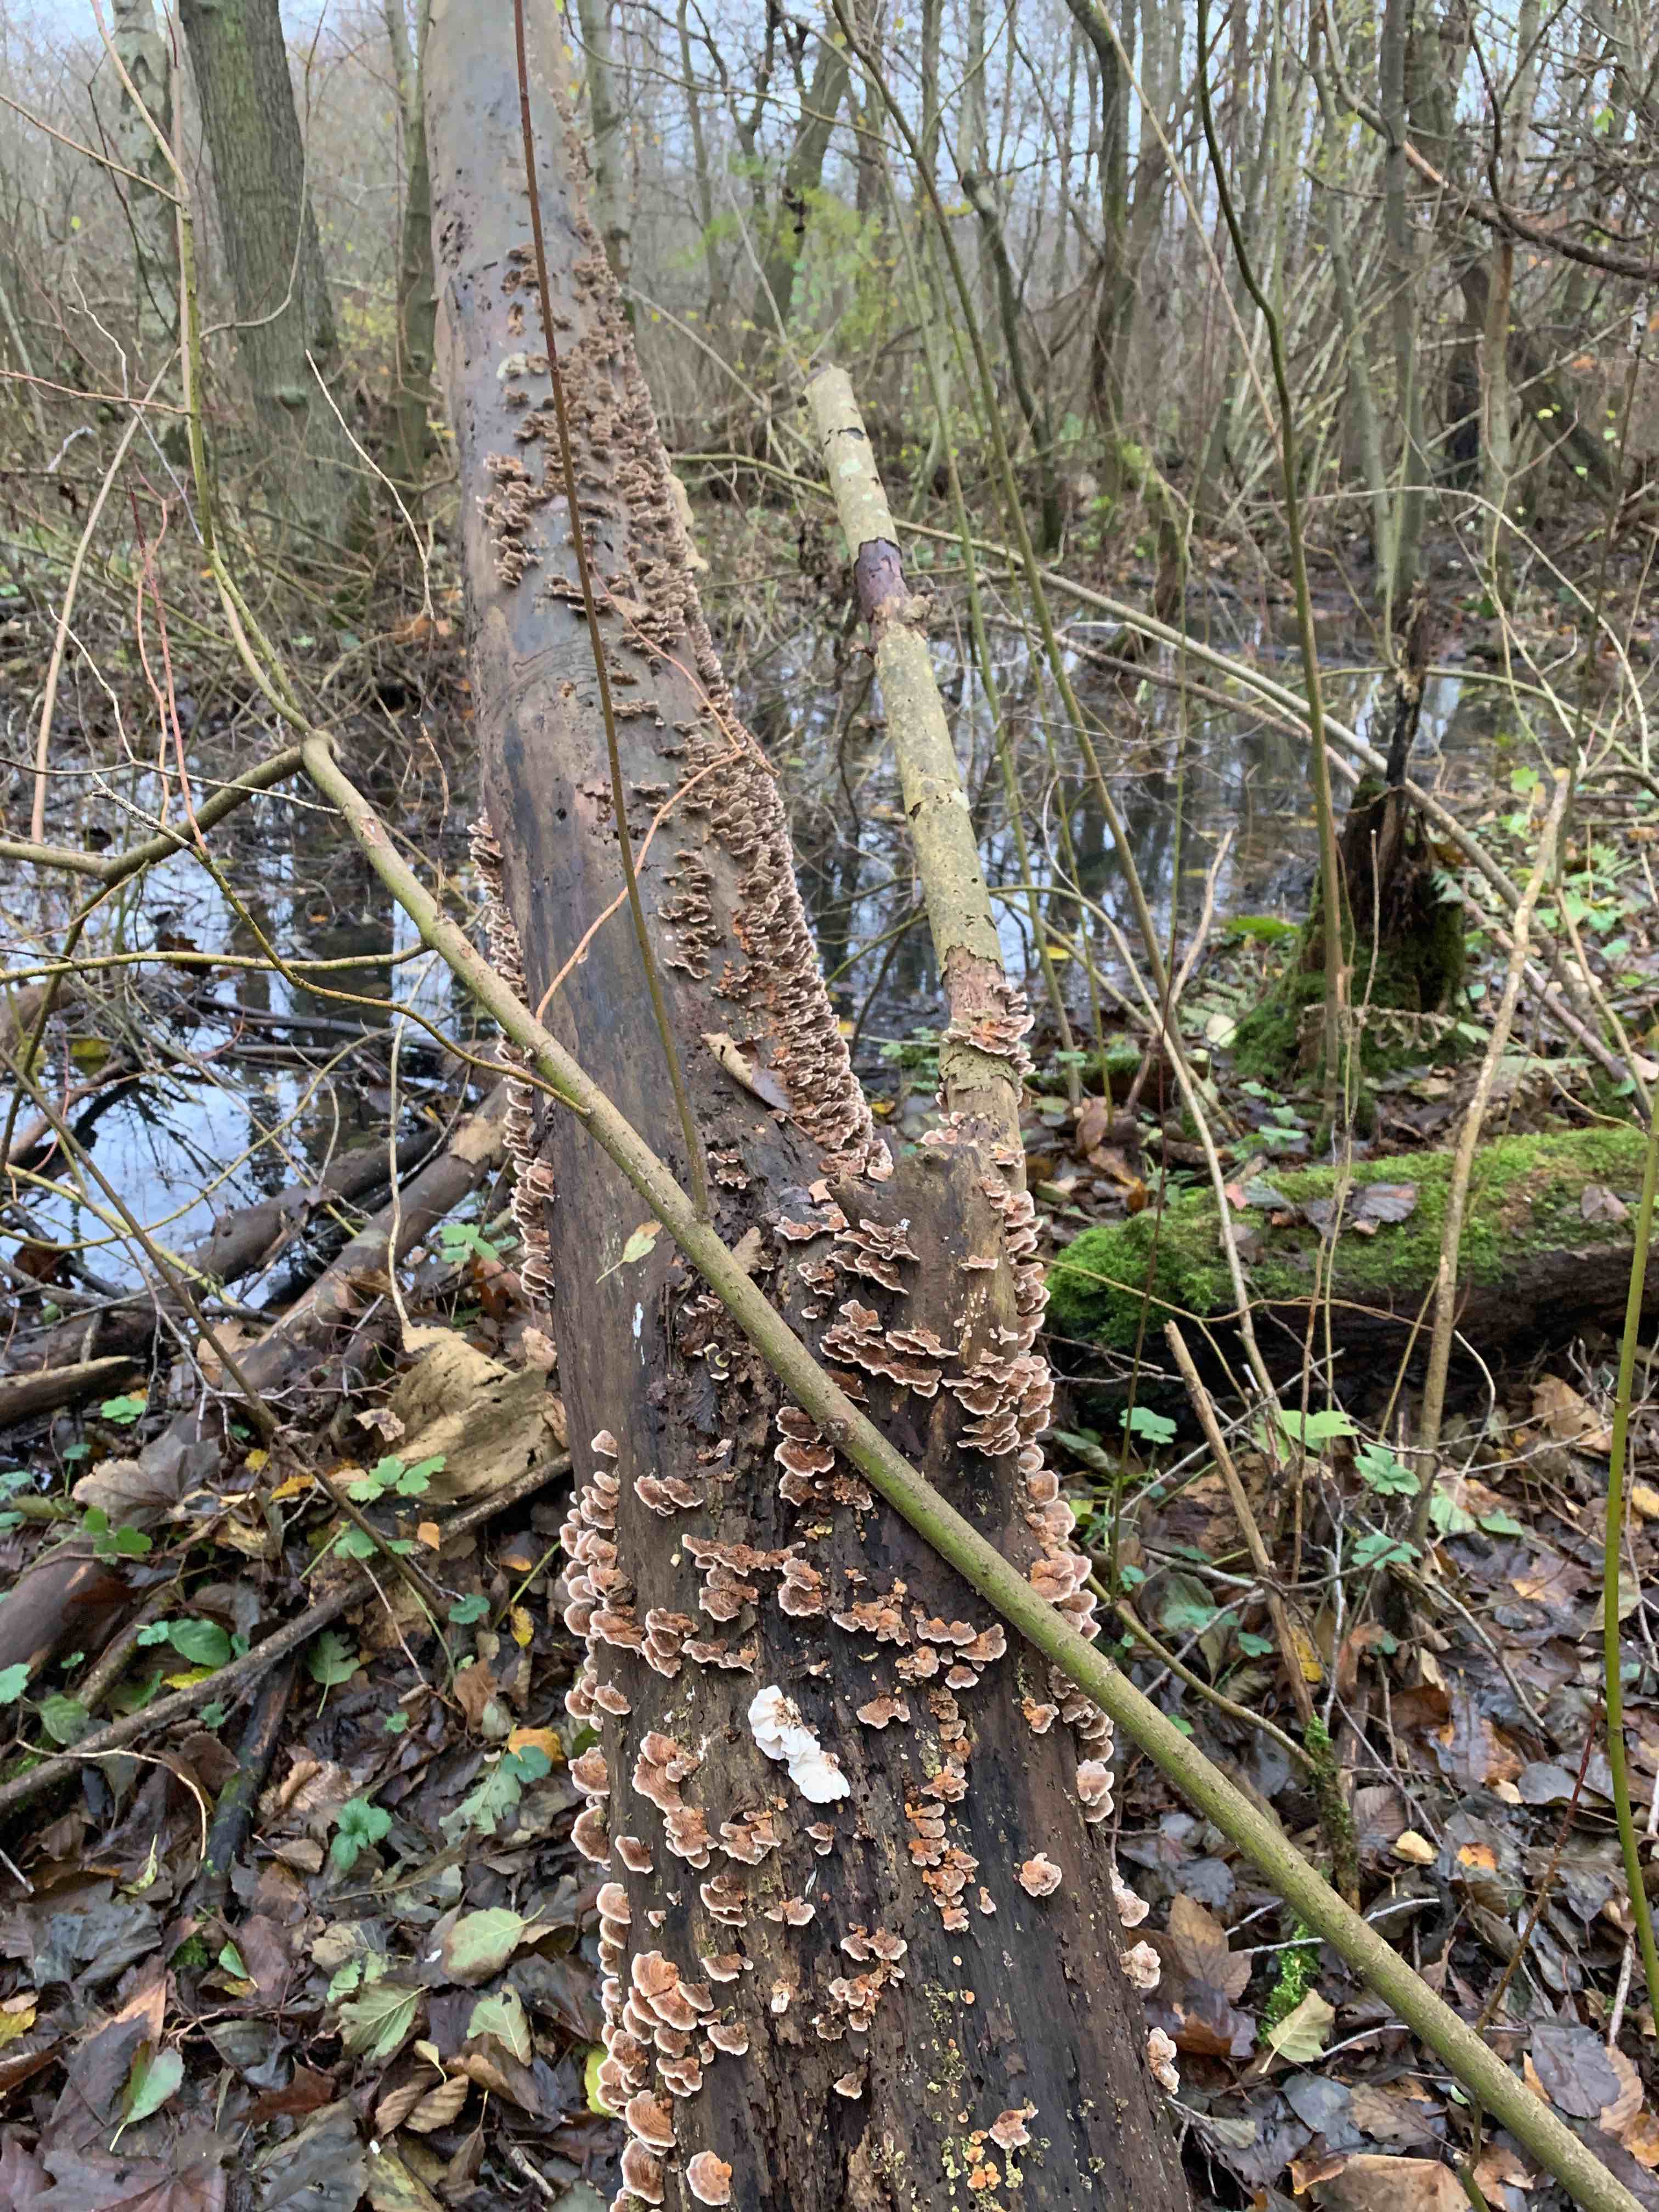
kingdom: Fungi
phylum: Basidiomycota
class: Agaricomycetes
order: Polyporales
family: Polyporaceae
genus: Trametes
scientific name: Trametes versicolor
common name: broget læderporesvamp
